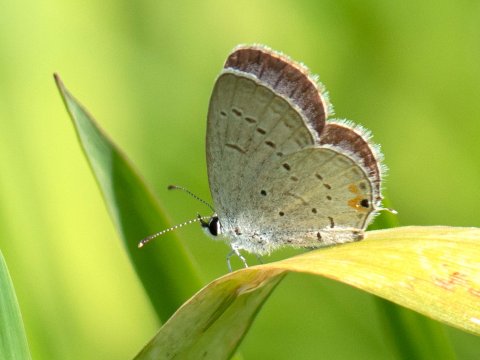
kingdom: Animalia
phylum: Arthropoda
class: Insecta
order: Lepidoptera
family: Lycaenidae
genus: Elkalyce
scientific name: Elkalyce comyntas
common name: Eastern Tailed-Blue
